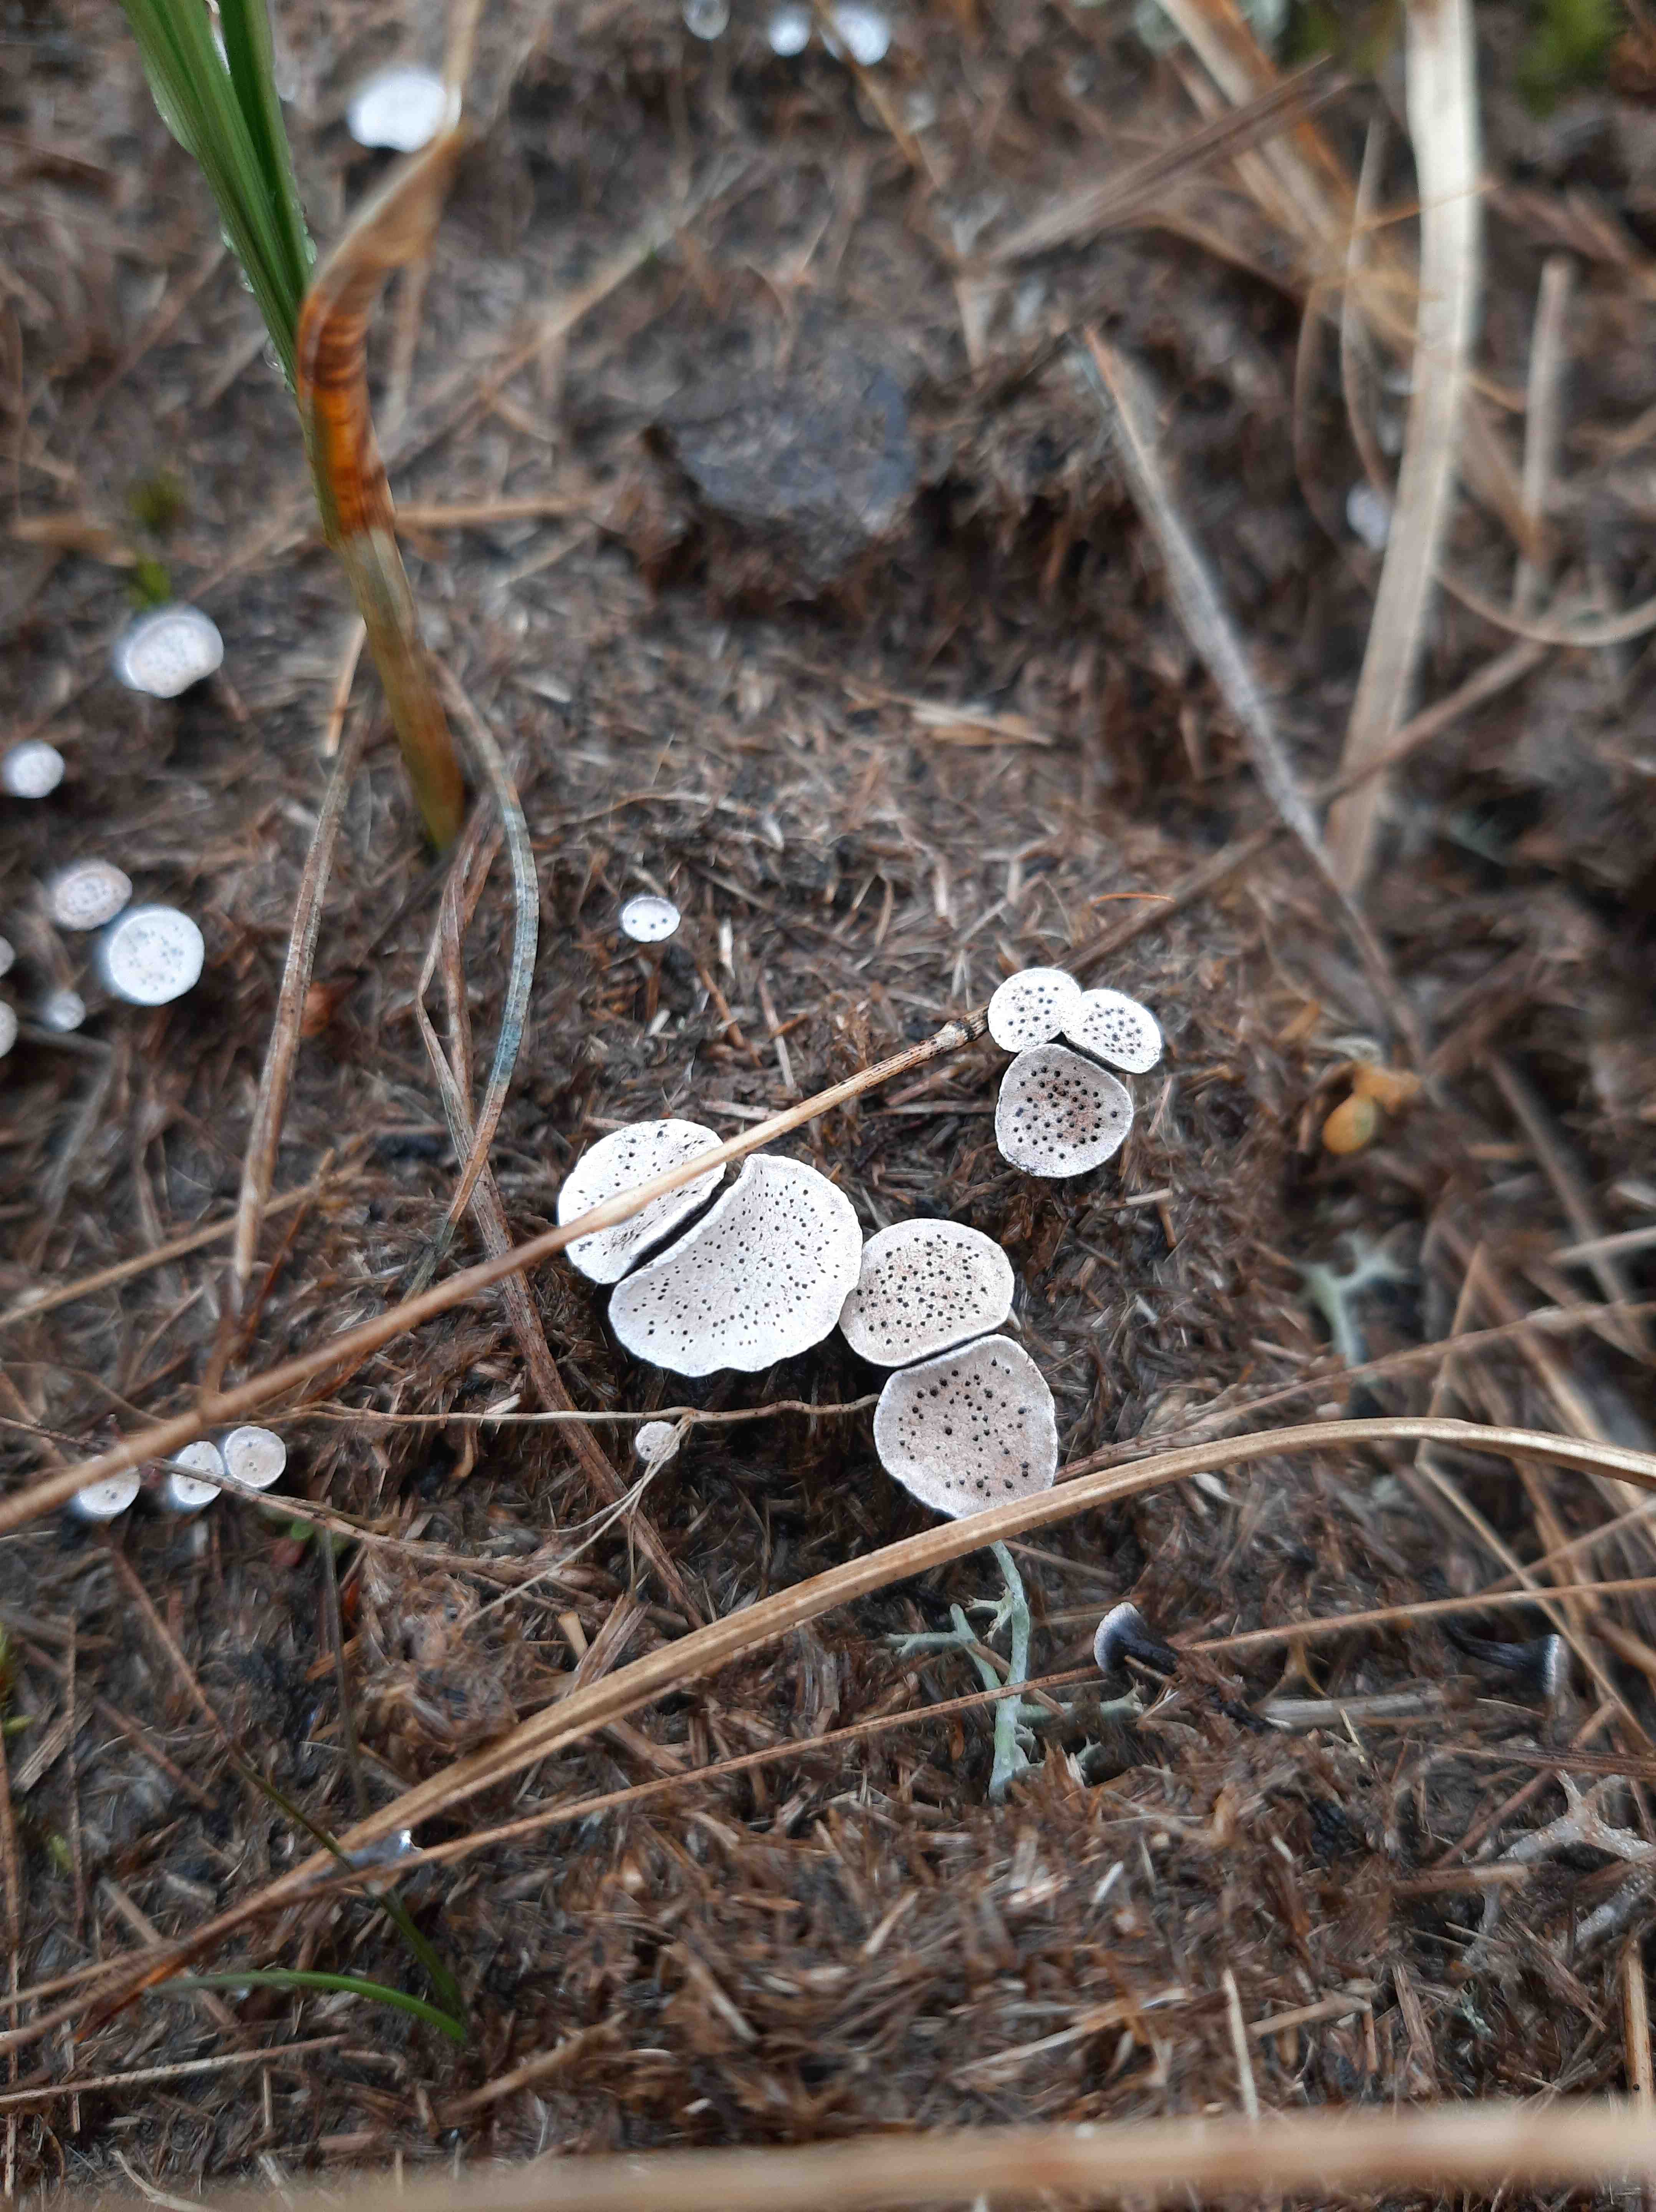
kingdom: Fungi
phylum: Ascomycota
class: Sordariomycetes
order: Xylariales
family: Xylariaceae
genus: Poronia
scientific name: Poronia punctata
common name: stor priksvamp
